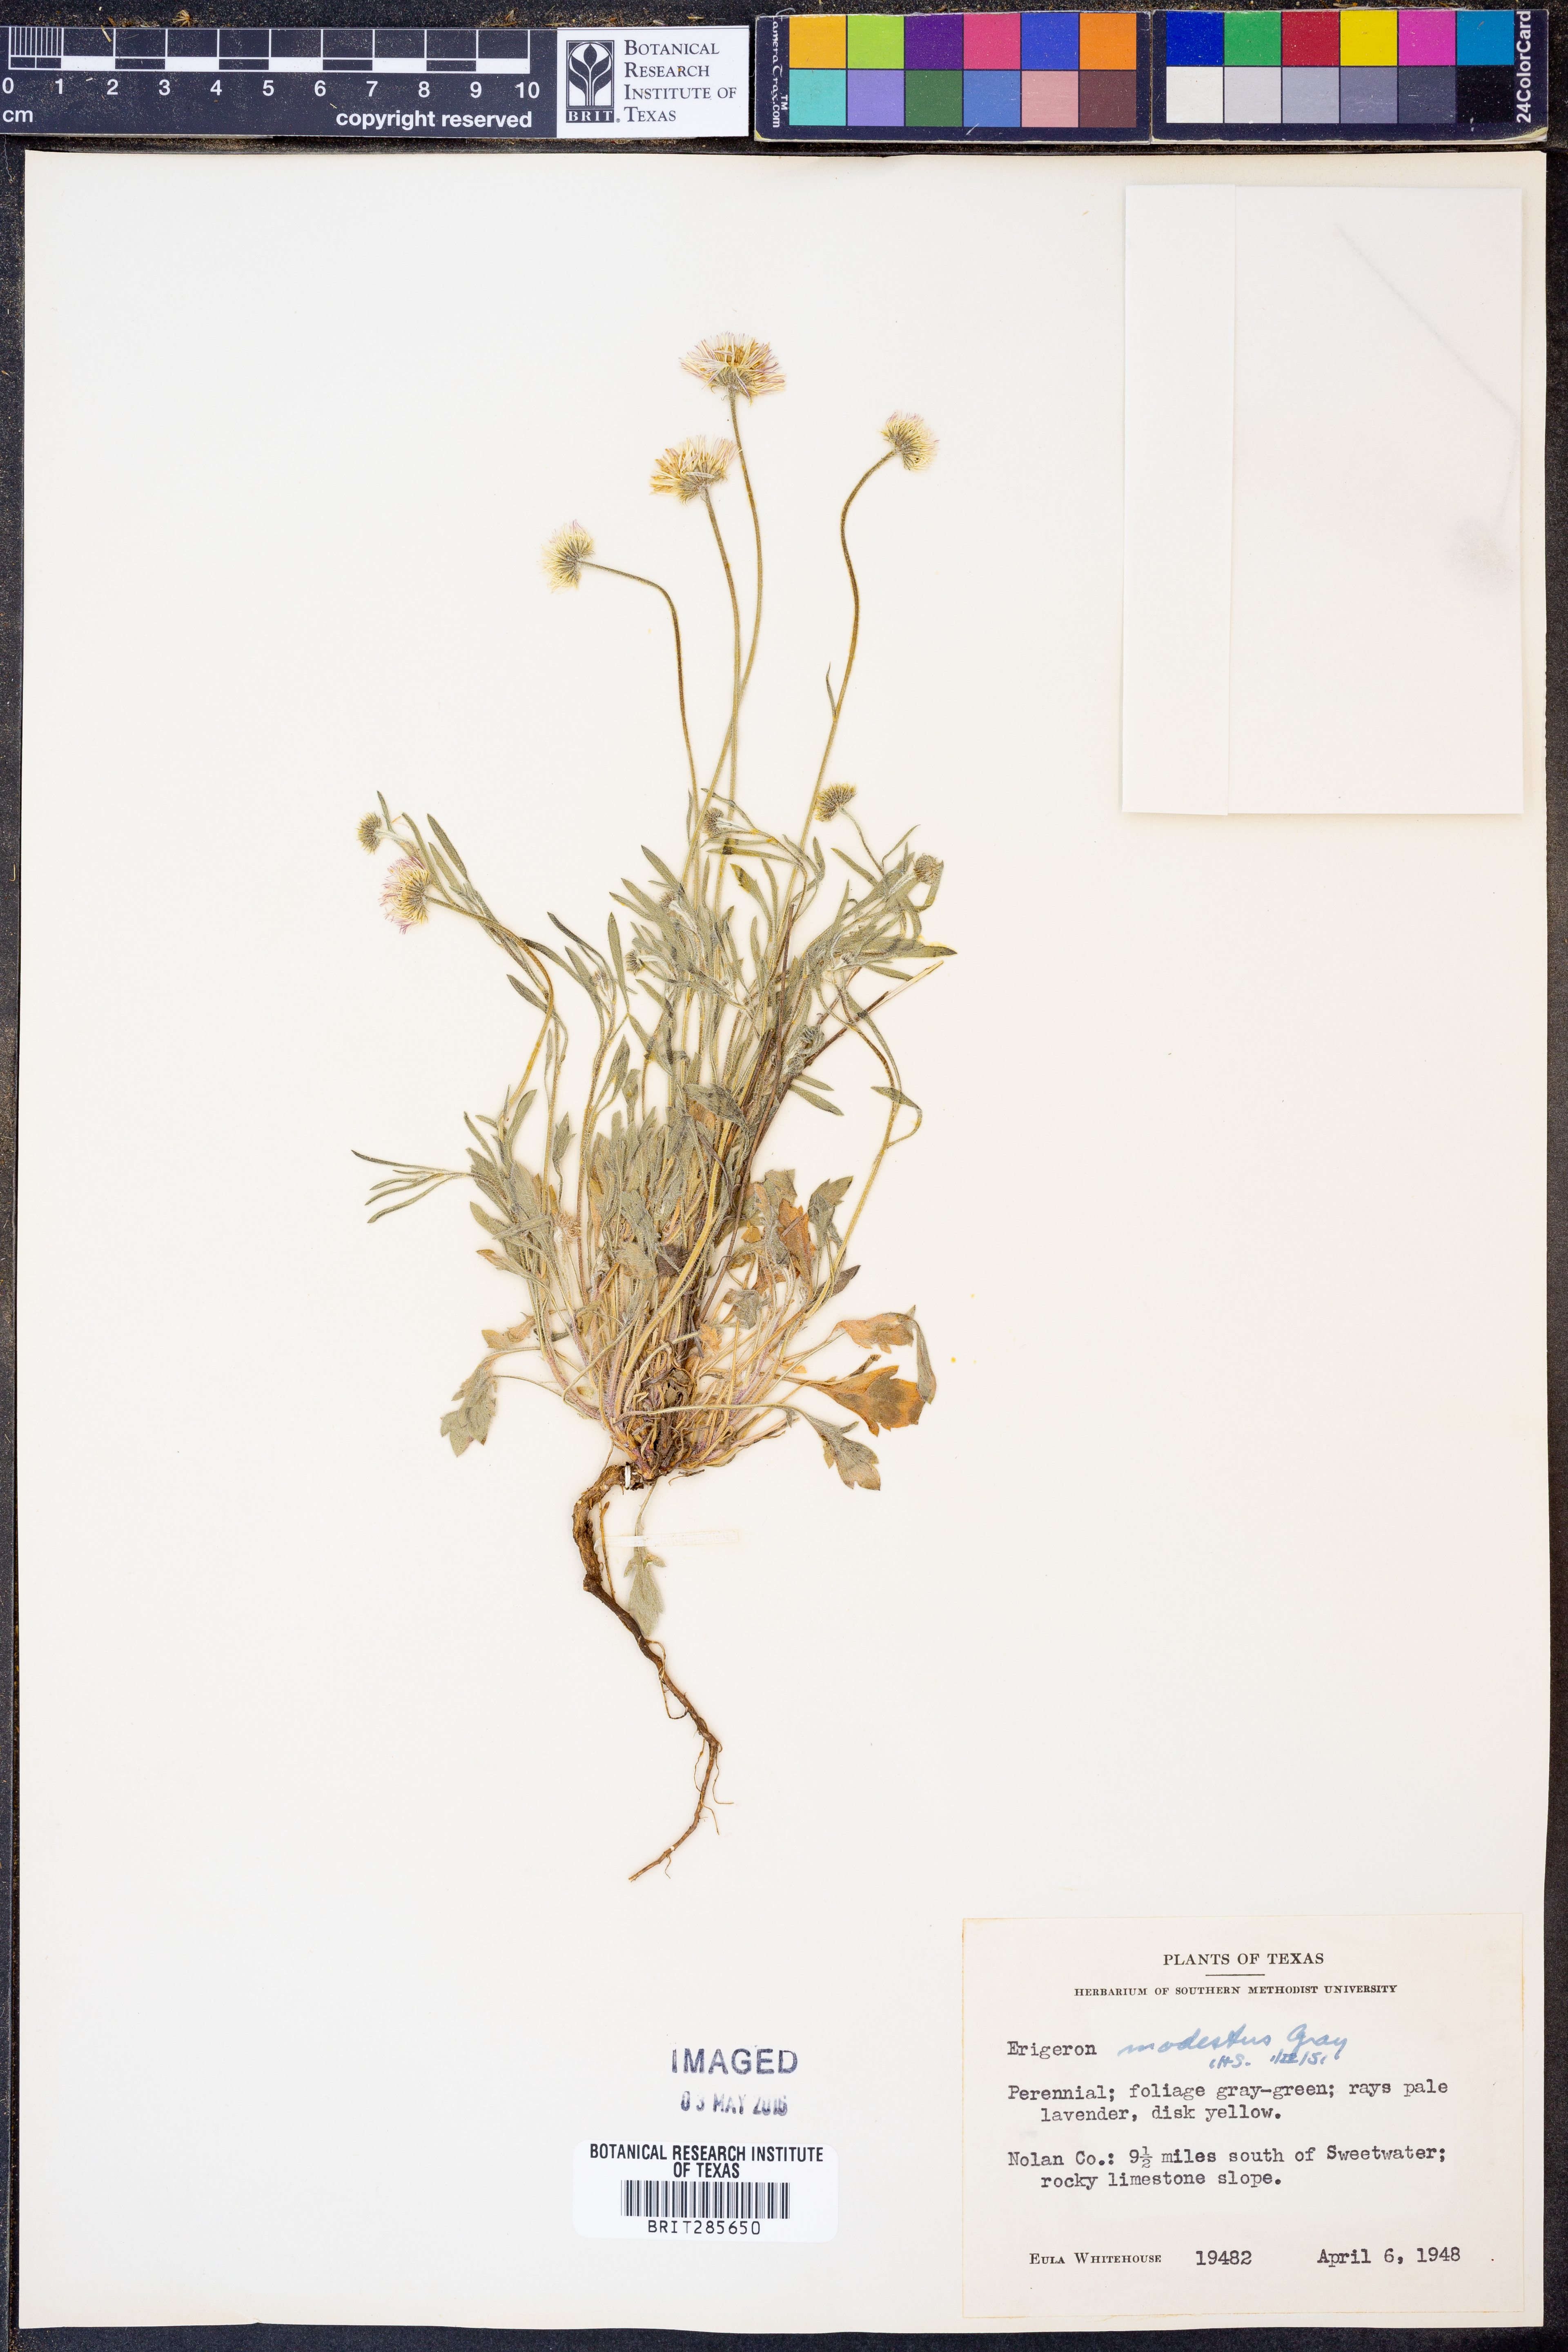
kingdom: Plantae
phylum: Tracheophyta
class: Magnoliopsida
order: Asterales
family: Asteraceae
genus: Erigeron
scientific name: Erigeron modestus
